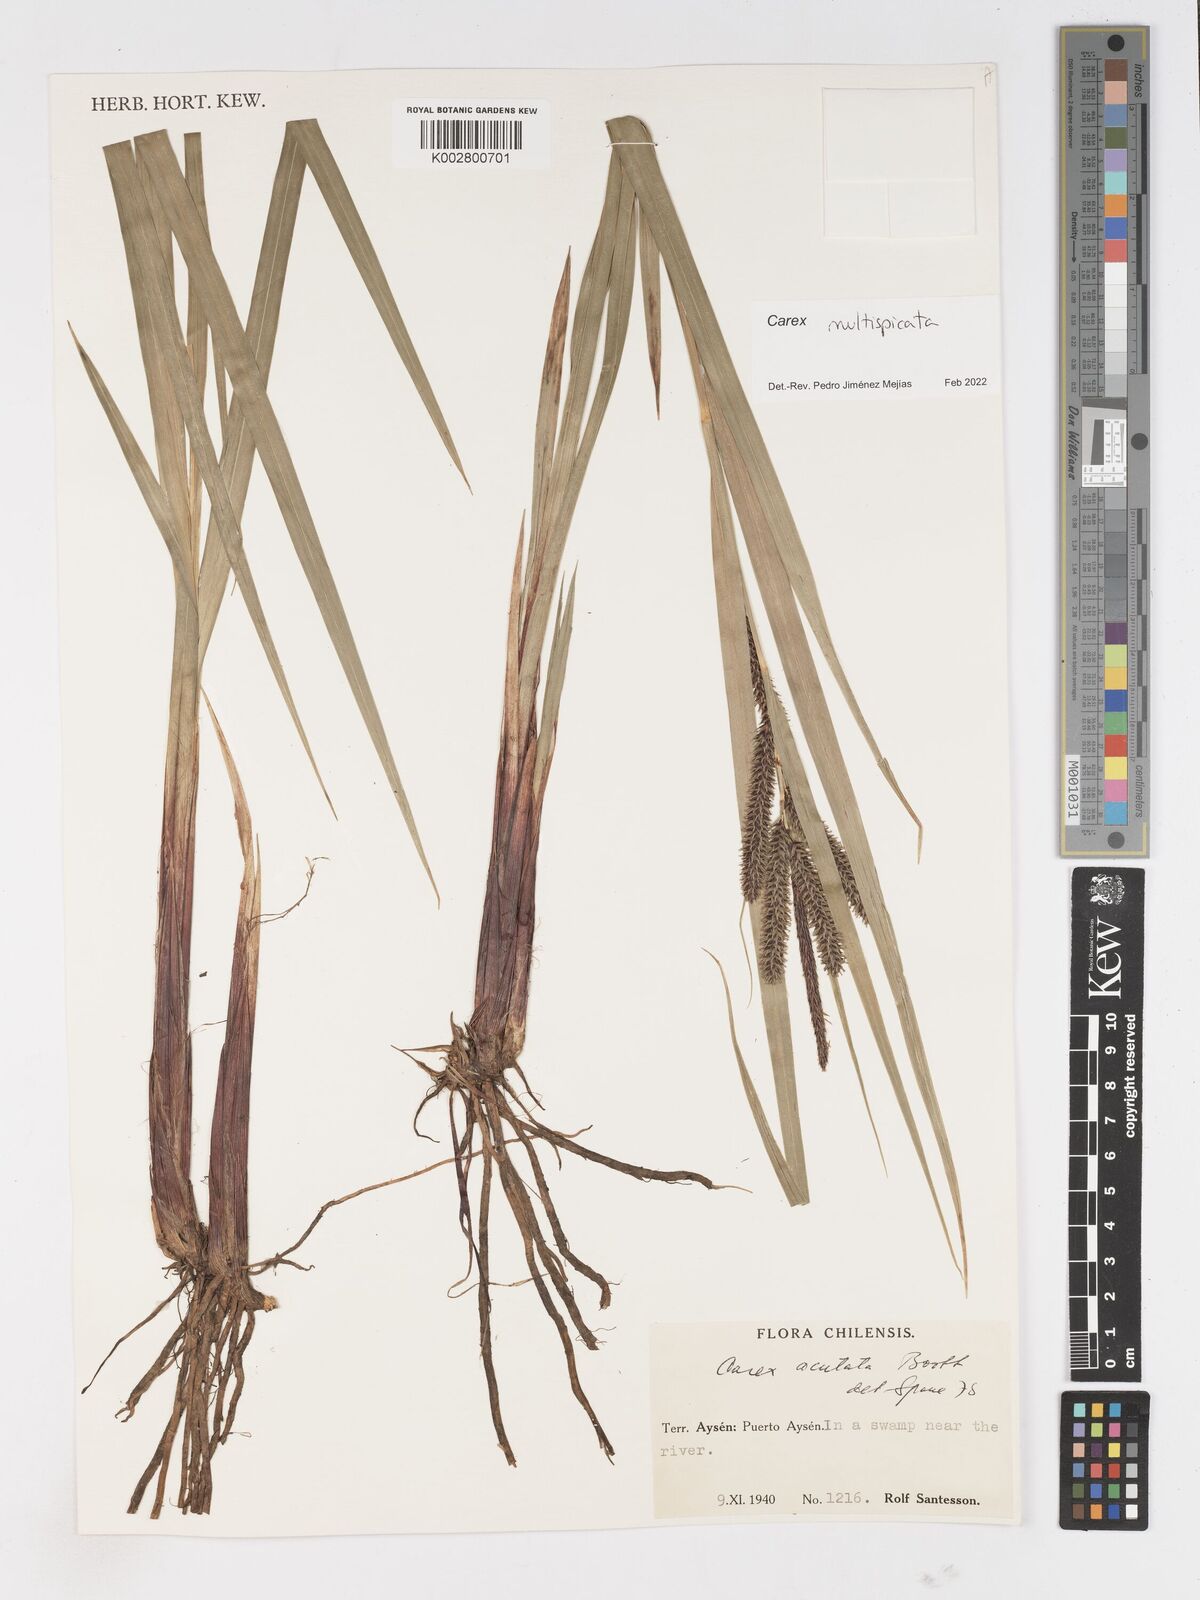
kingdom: Plantae
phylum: Tracheophyta
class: Liliopsida
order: Poales
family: Cyperaceae
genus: Carex
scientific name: Carex multispicata
